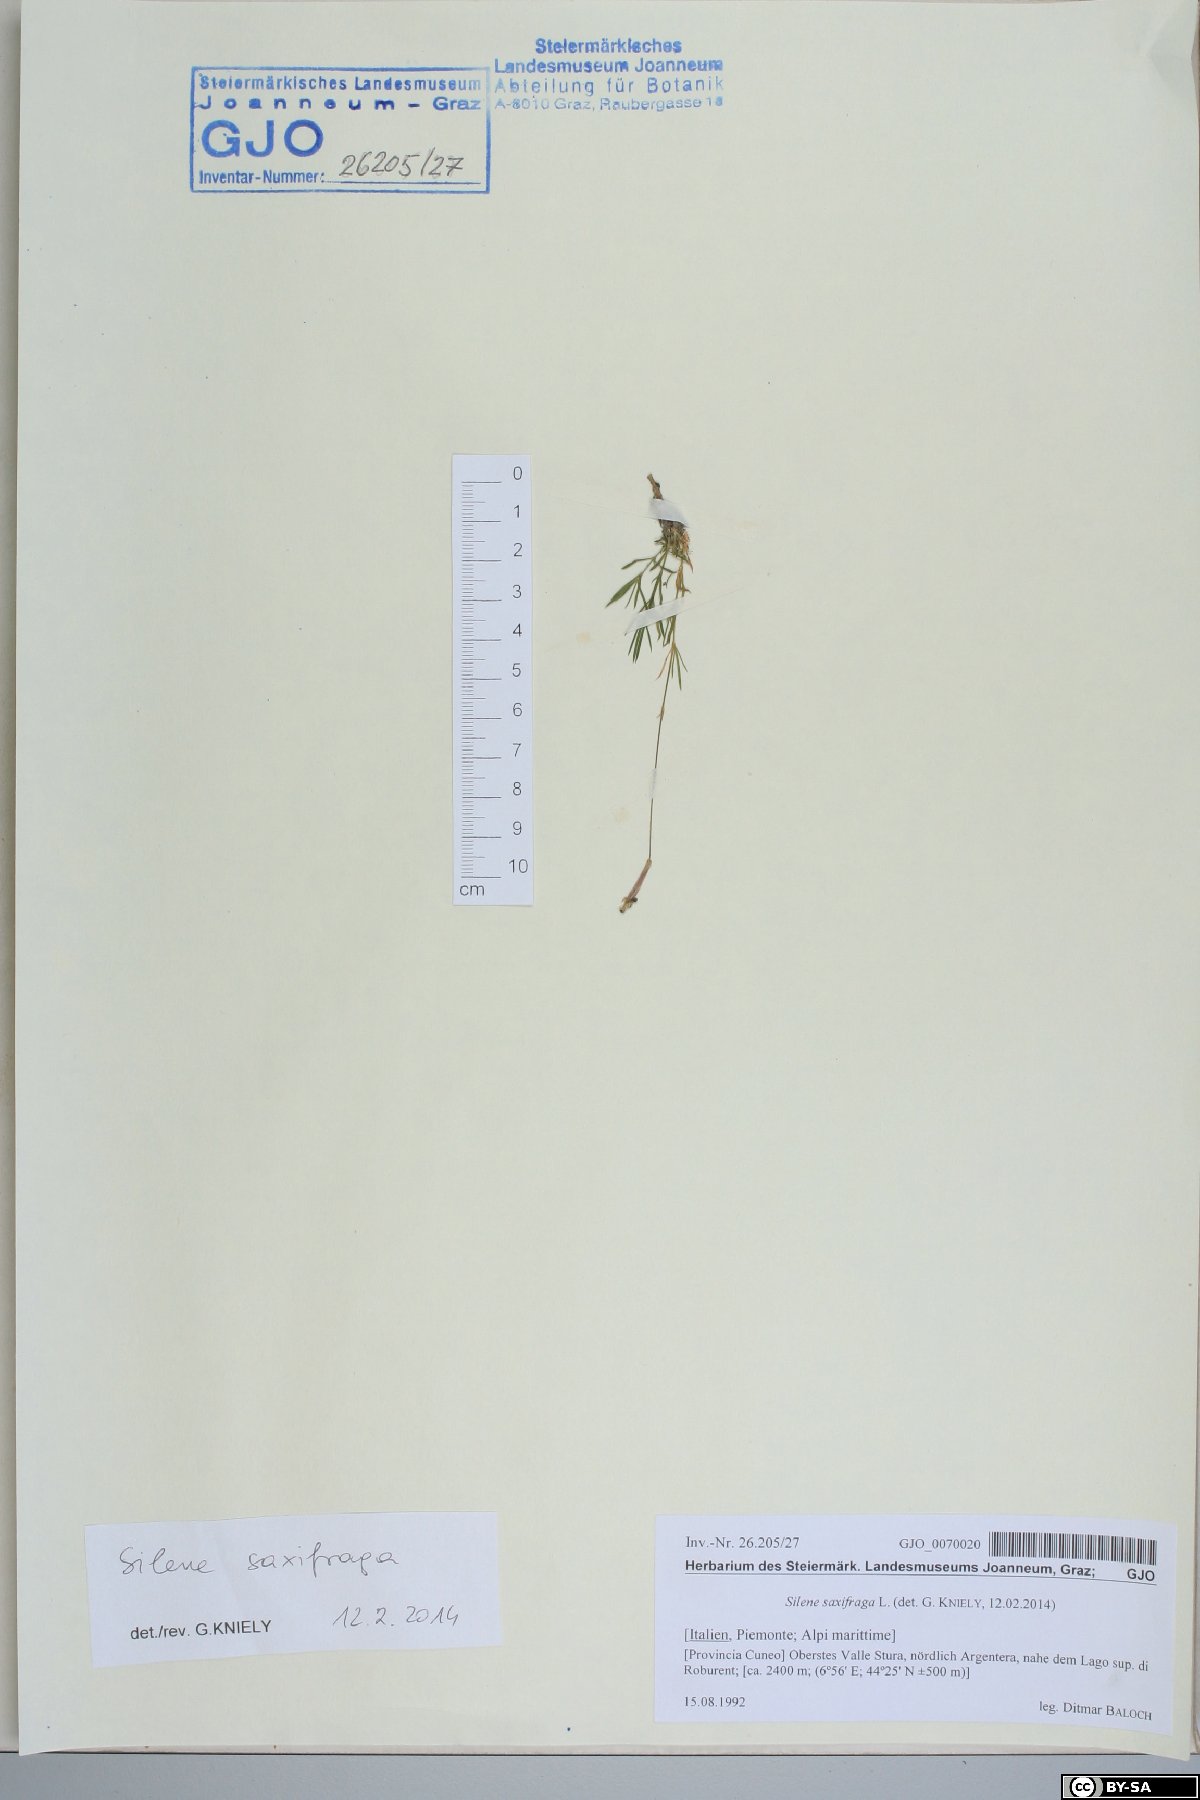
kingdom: Plantae
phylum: Tracheophyta
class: Magnoliopsida
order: Caryophyllales
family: Caryophyllaceae
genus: Silene
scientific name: Silene saxifraga
